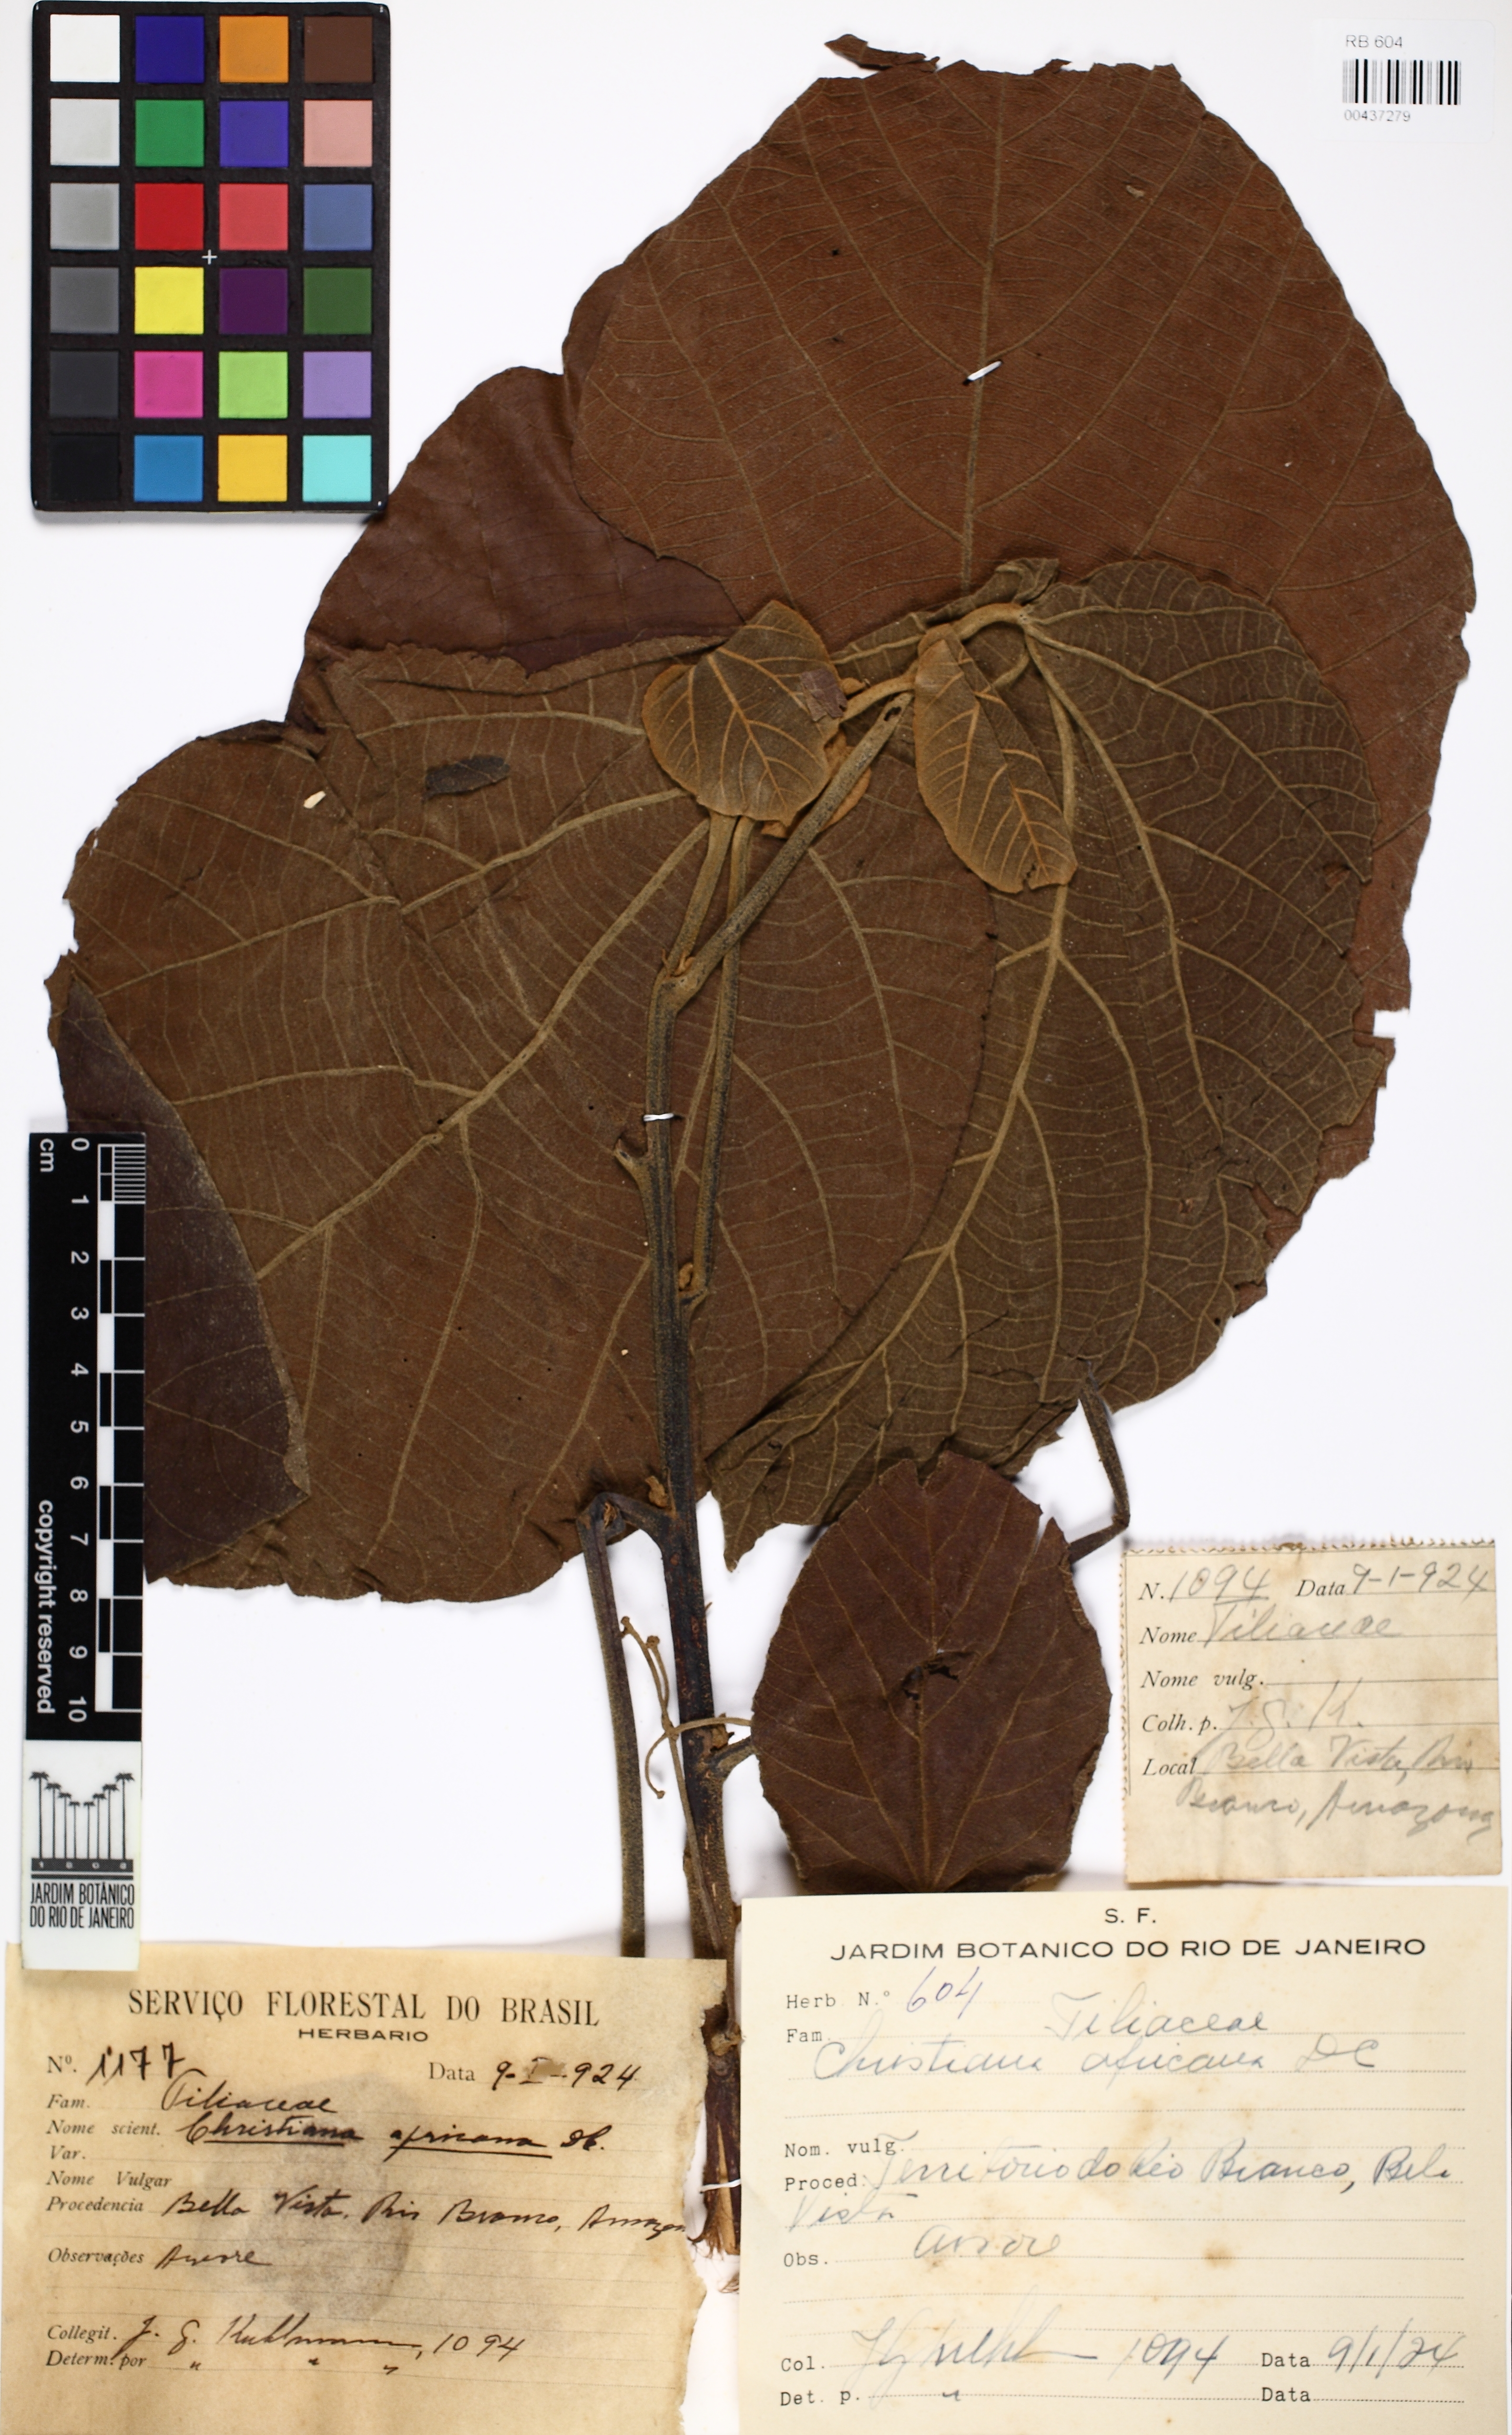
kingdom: Plantae
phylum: Tracheophyta
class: Magnoliopsida
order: Malvales
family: Malvaceae
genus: Christiana
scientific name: Christiana africana
